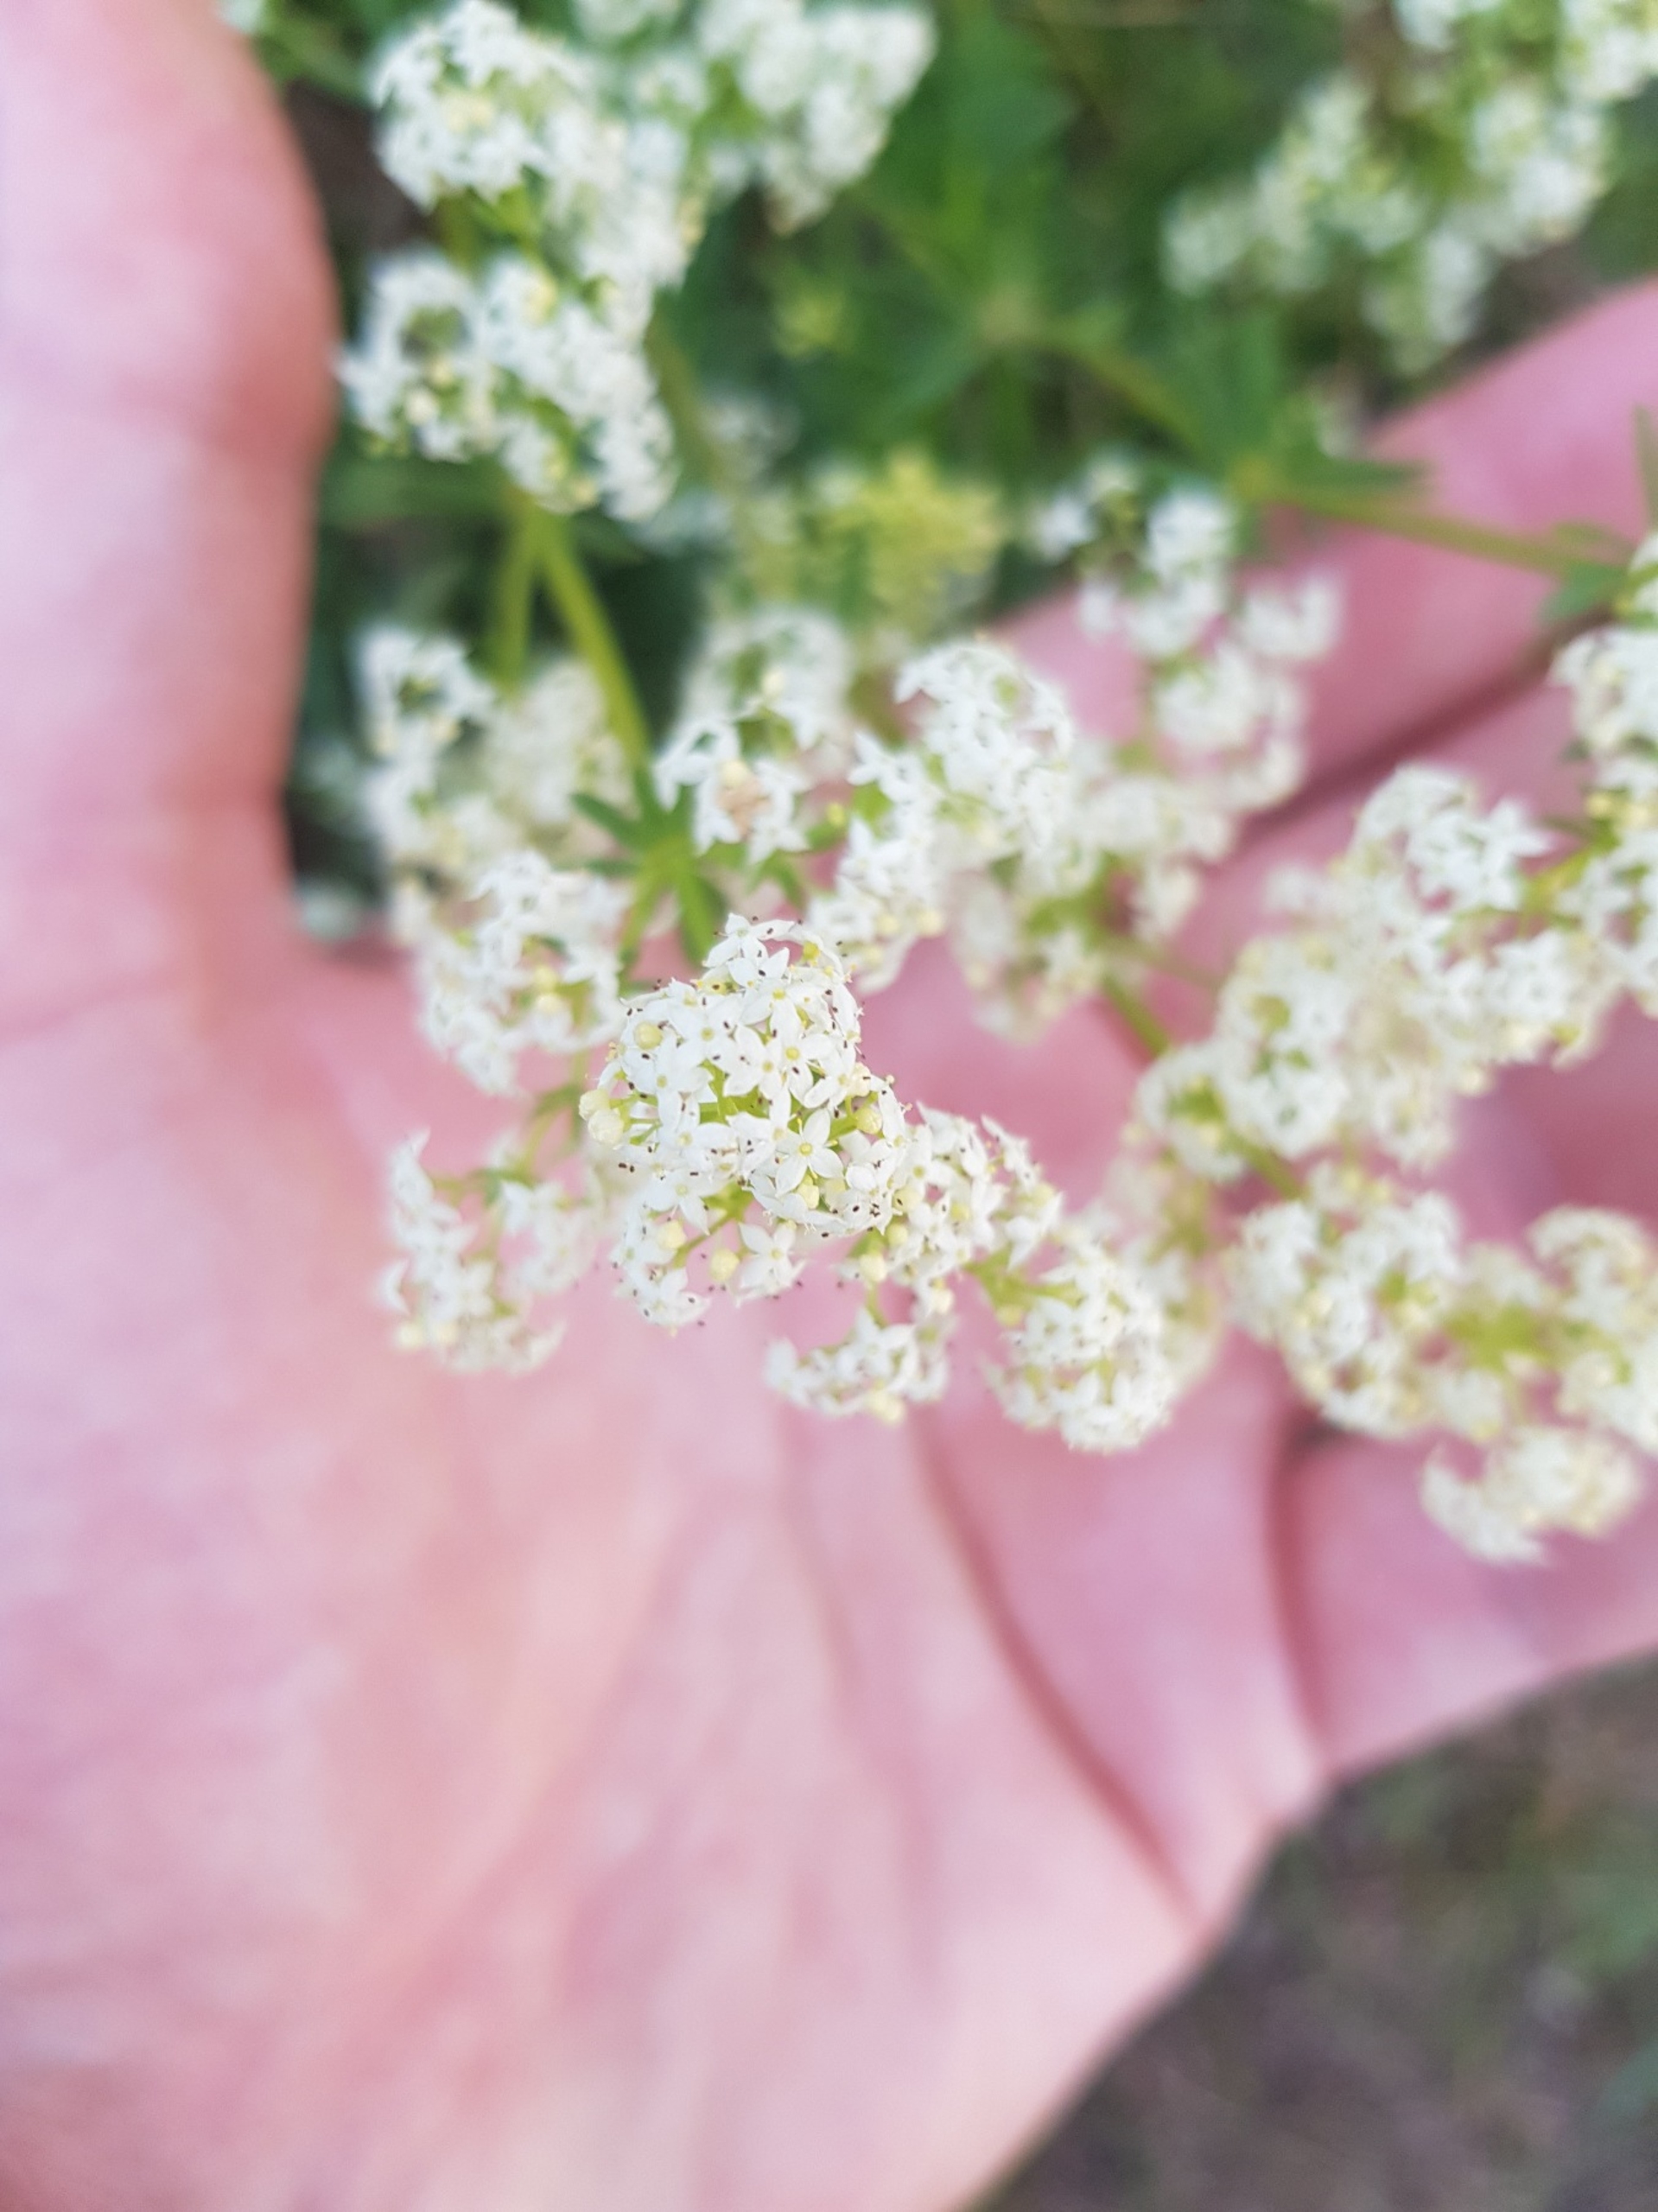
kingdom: Plantae
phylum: Tracheophyta
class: Magnoliopsida
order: Gentianales
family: Rubiaceae
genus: Galium
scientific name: Galium mollugo
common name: Hvid snerre
